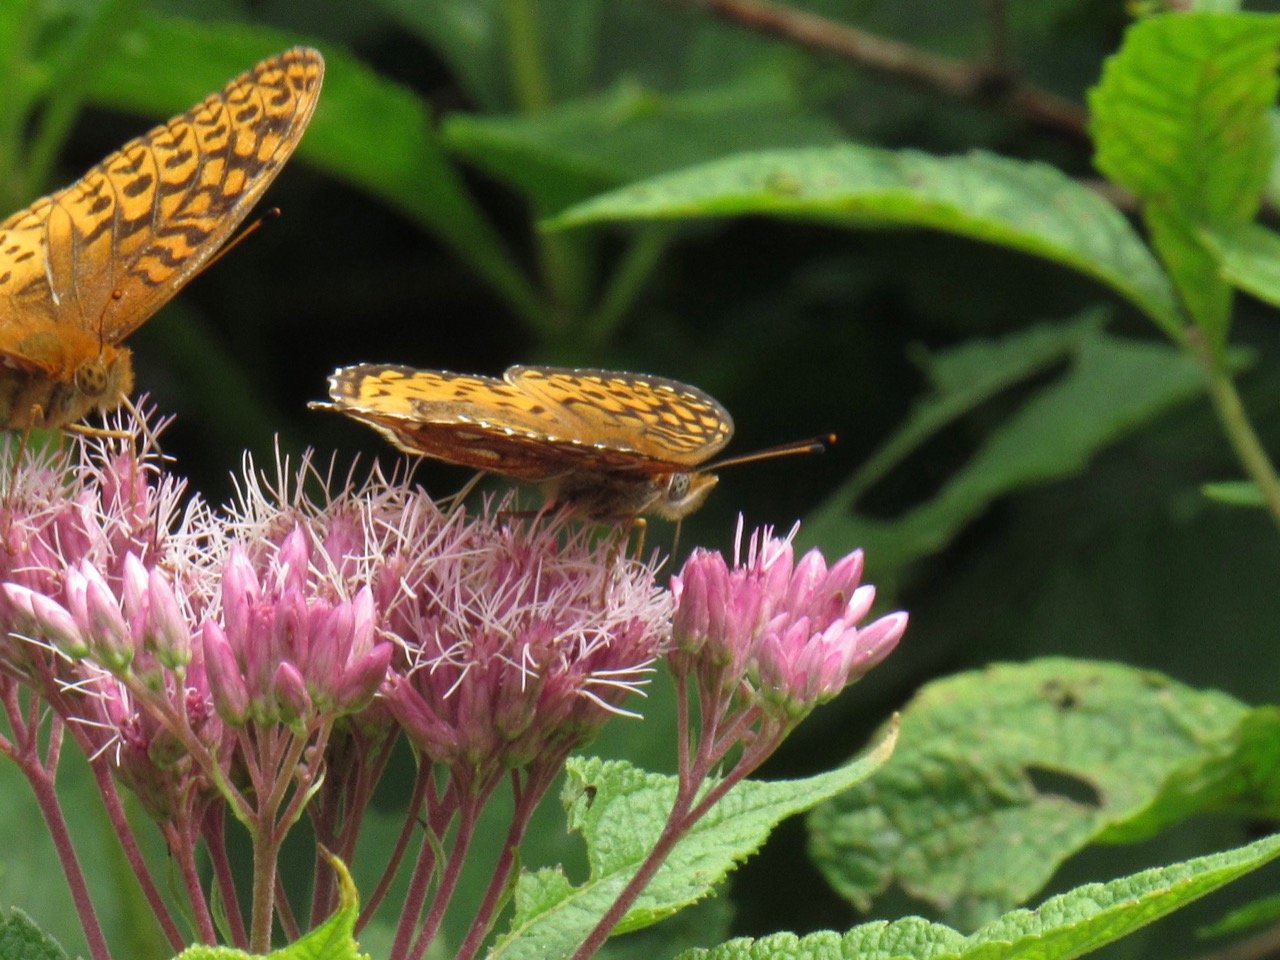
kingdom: Animalia
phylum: Arthropoda
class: Insecta
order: Lepidoptera
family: Nymphalidae
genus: Speyeria
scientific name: Speyeria atlantis
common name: Atlantis Fritillary
